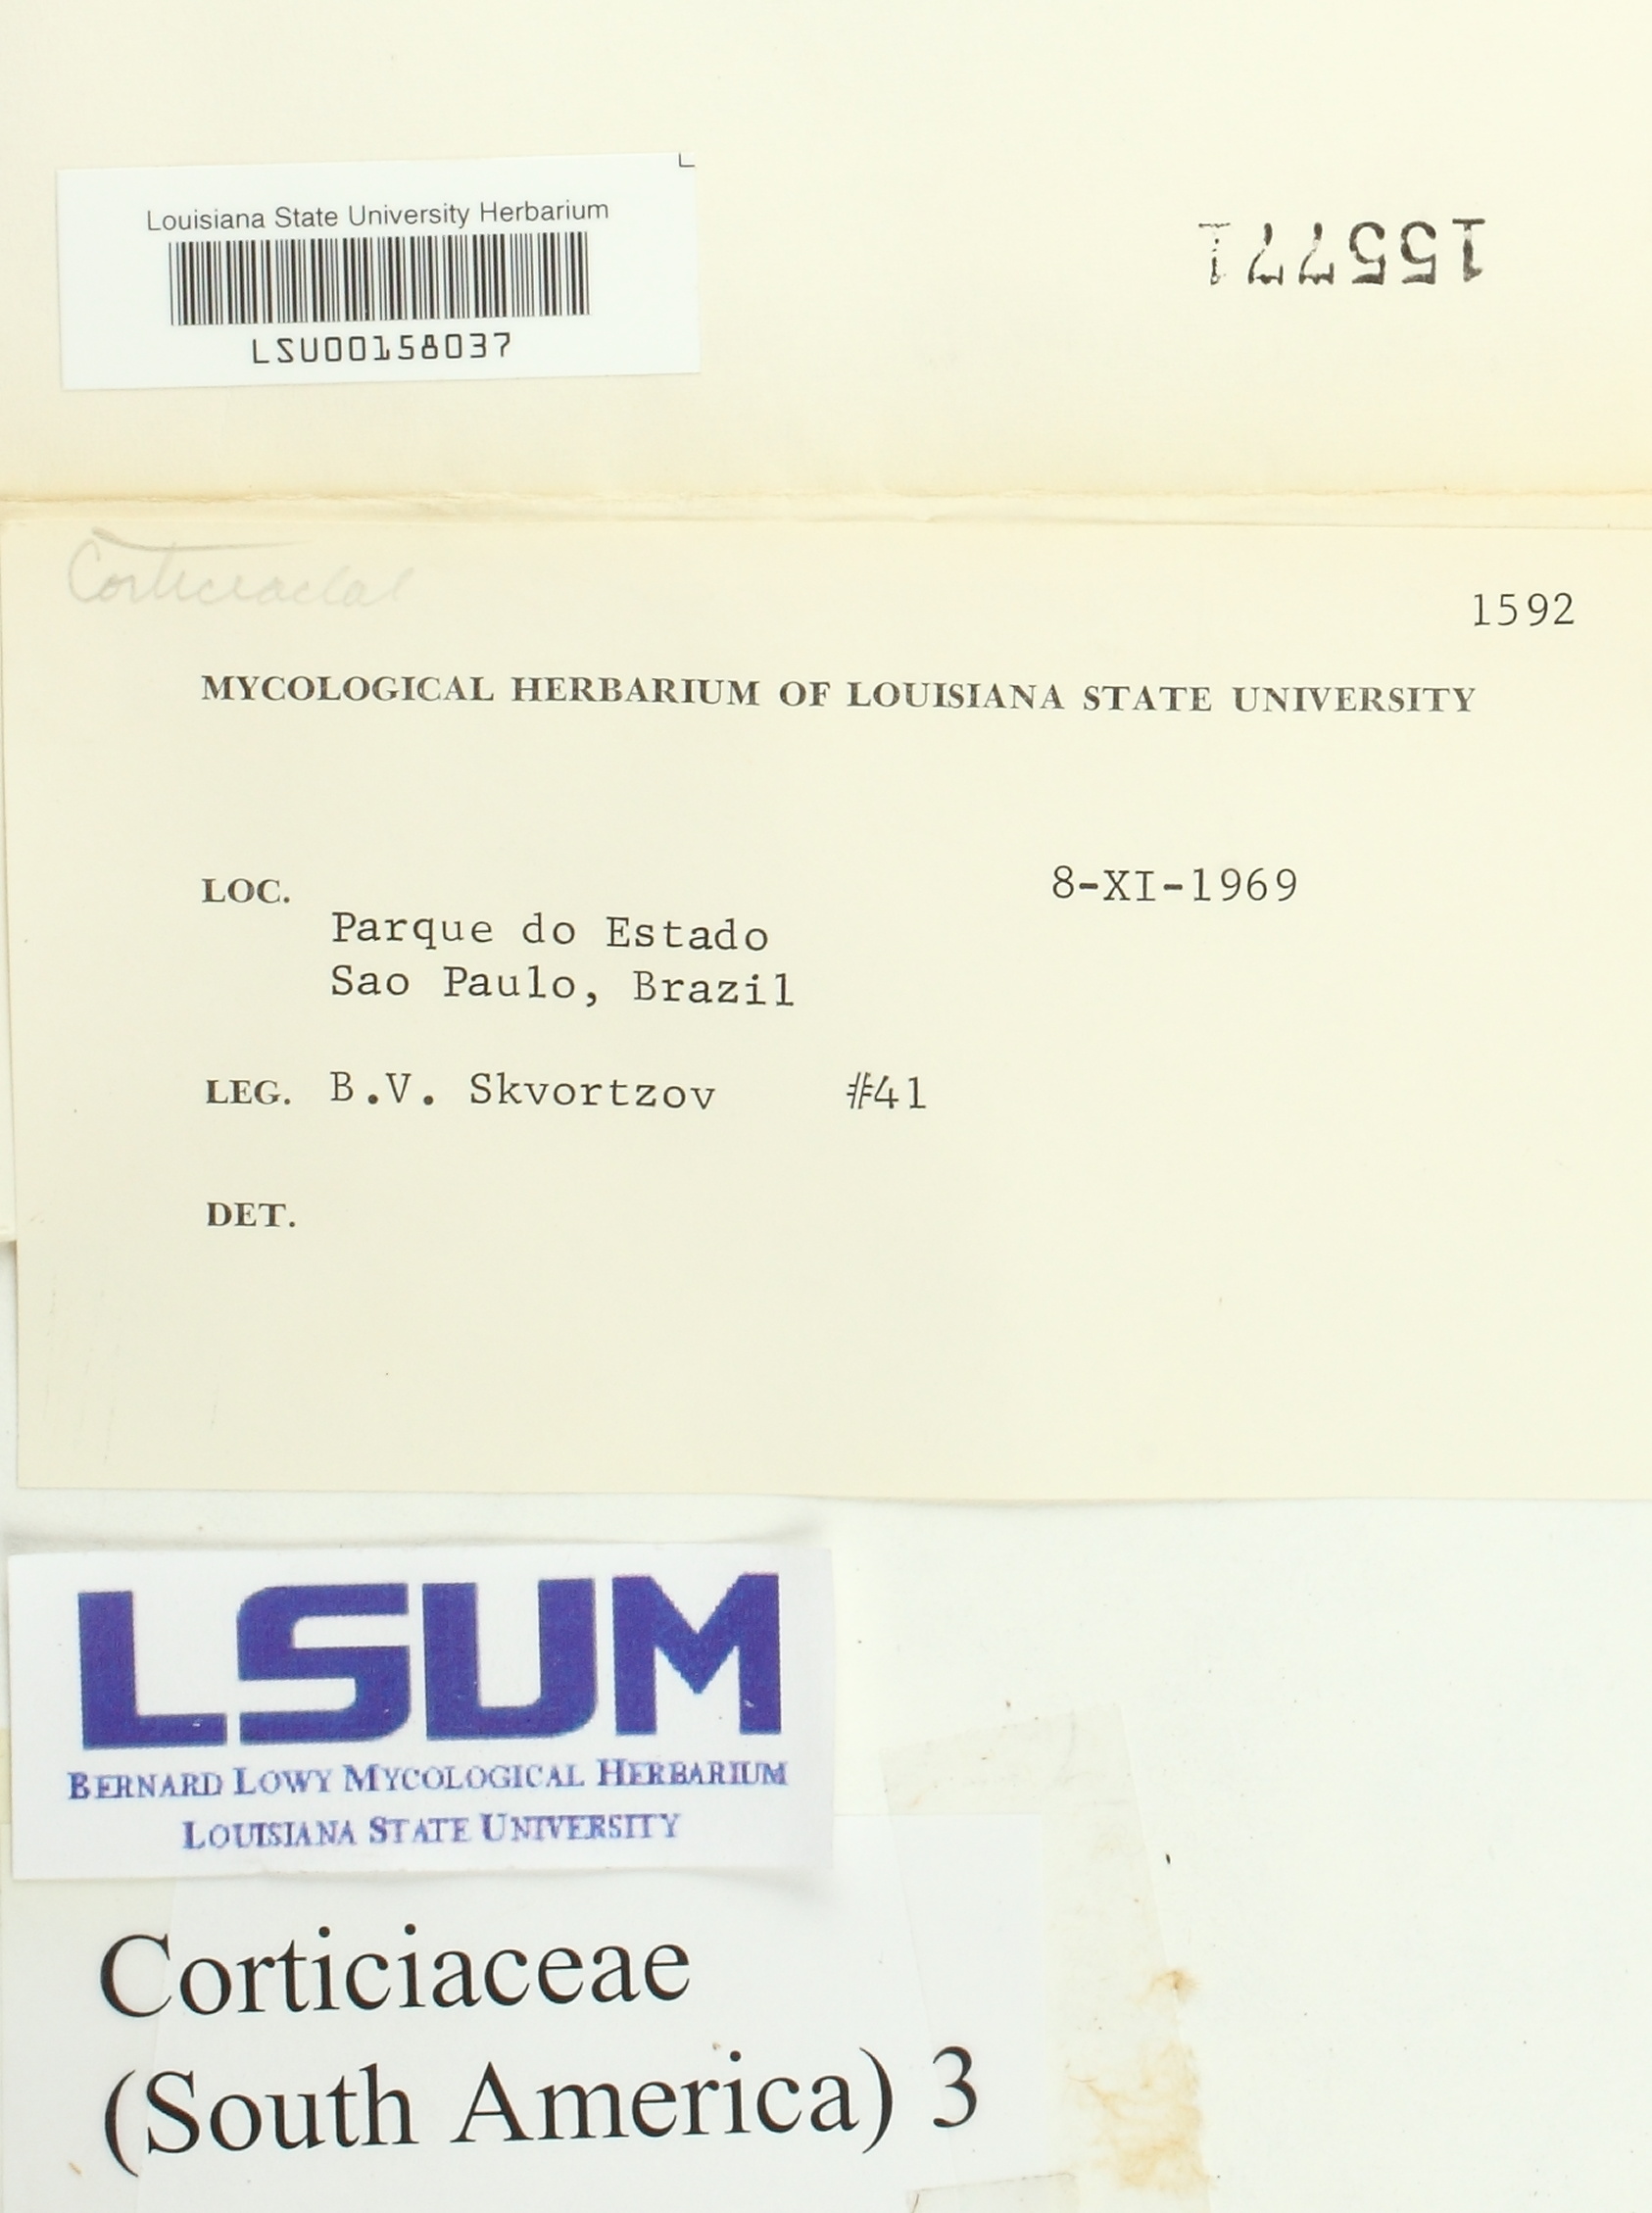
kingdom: Fungi
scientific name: Fungi
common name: Fungi
